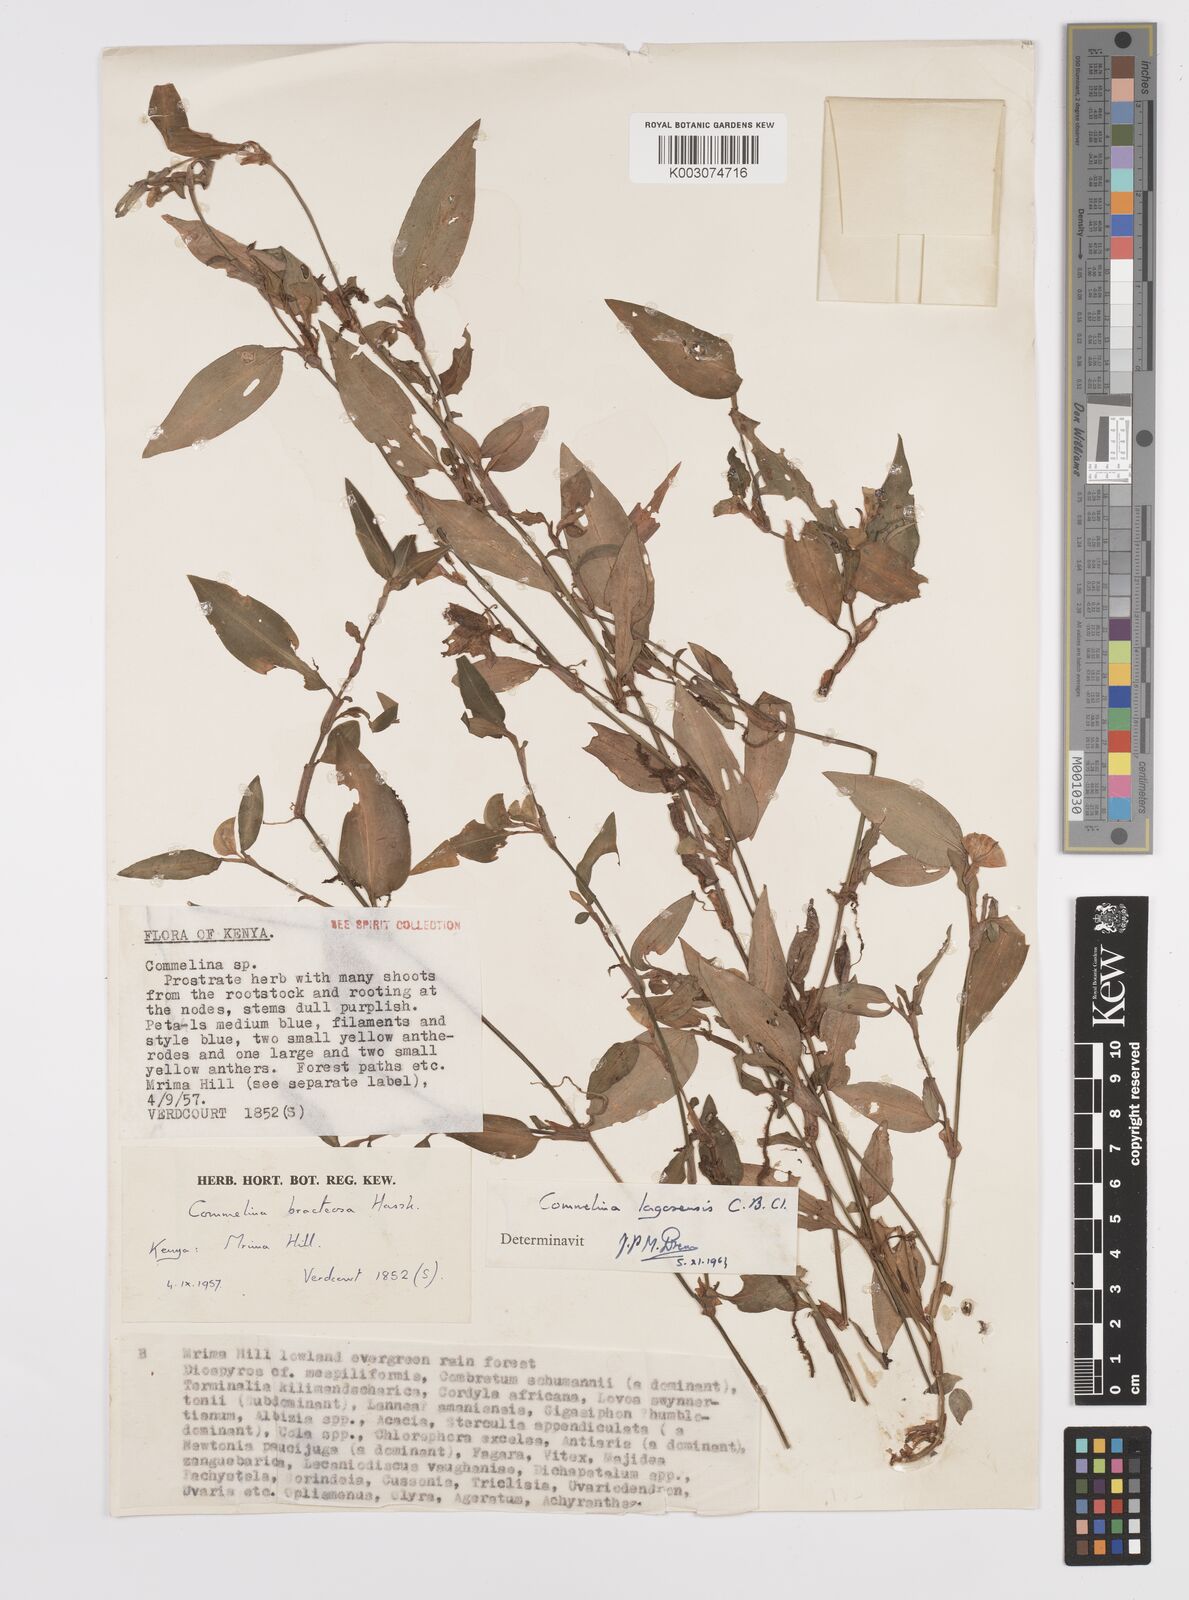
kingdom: Plantae
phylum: Tracheophyta
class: Liliopsida
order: Commelinales
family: Commelinaceae
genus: Commelina
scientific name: Commelina bracteosa
